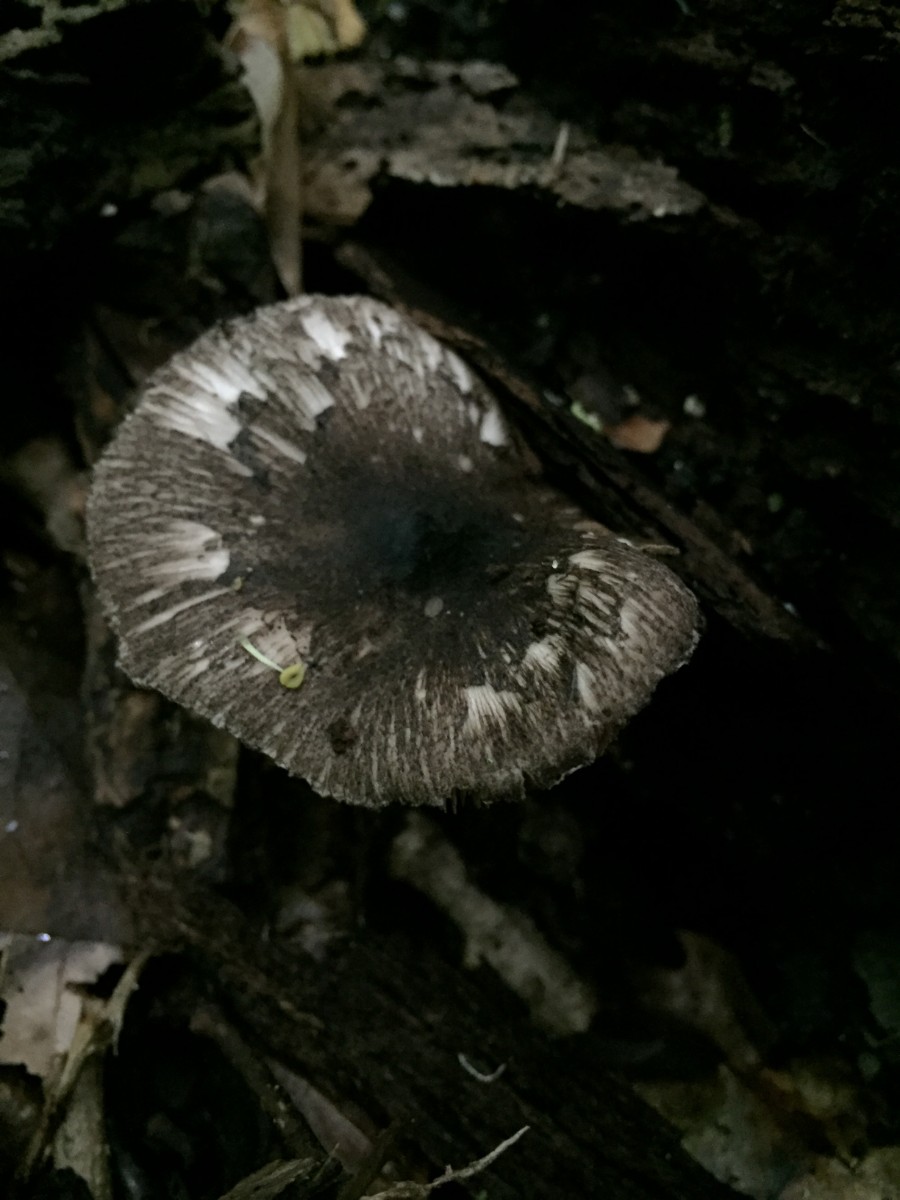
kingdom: Fungi
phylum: Basidiomycota
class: Agaricomycetes
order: Agaricales
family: Pluteaceae
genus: Pluteus
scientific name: Pluteus
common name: gråfibret skærmhat
